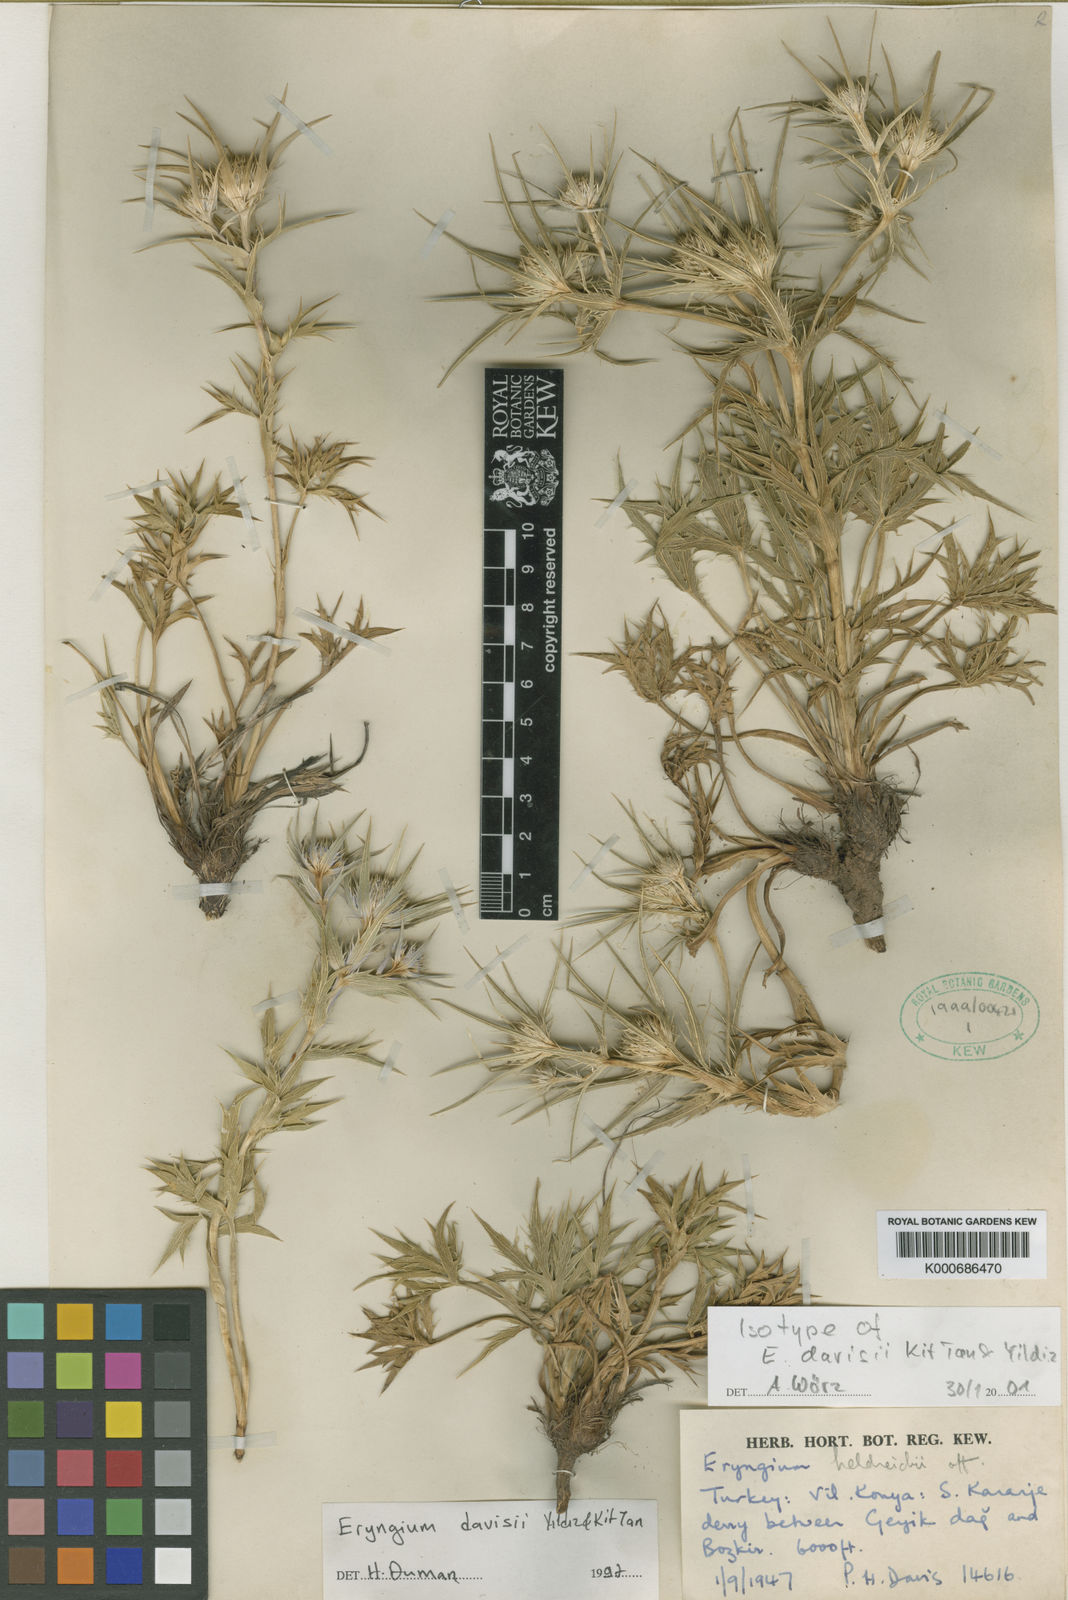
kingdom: Plantae
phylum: Tracheophyta
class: Magnoliopsida
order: Apiales
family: Apiaceae
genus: Eryngium
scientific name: Eryngium davisii
